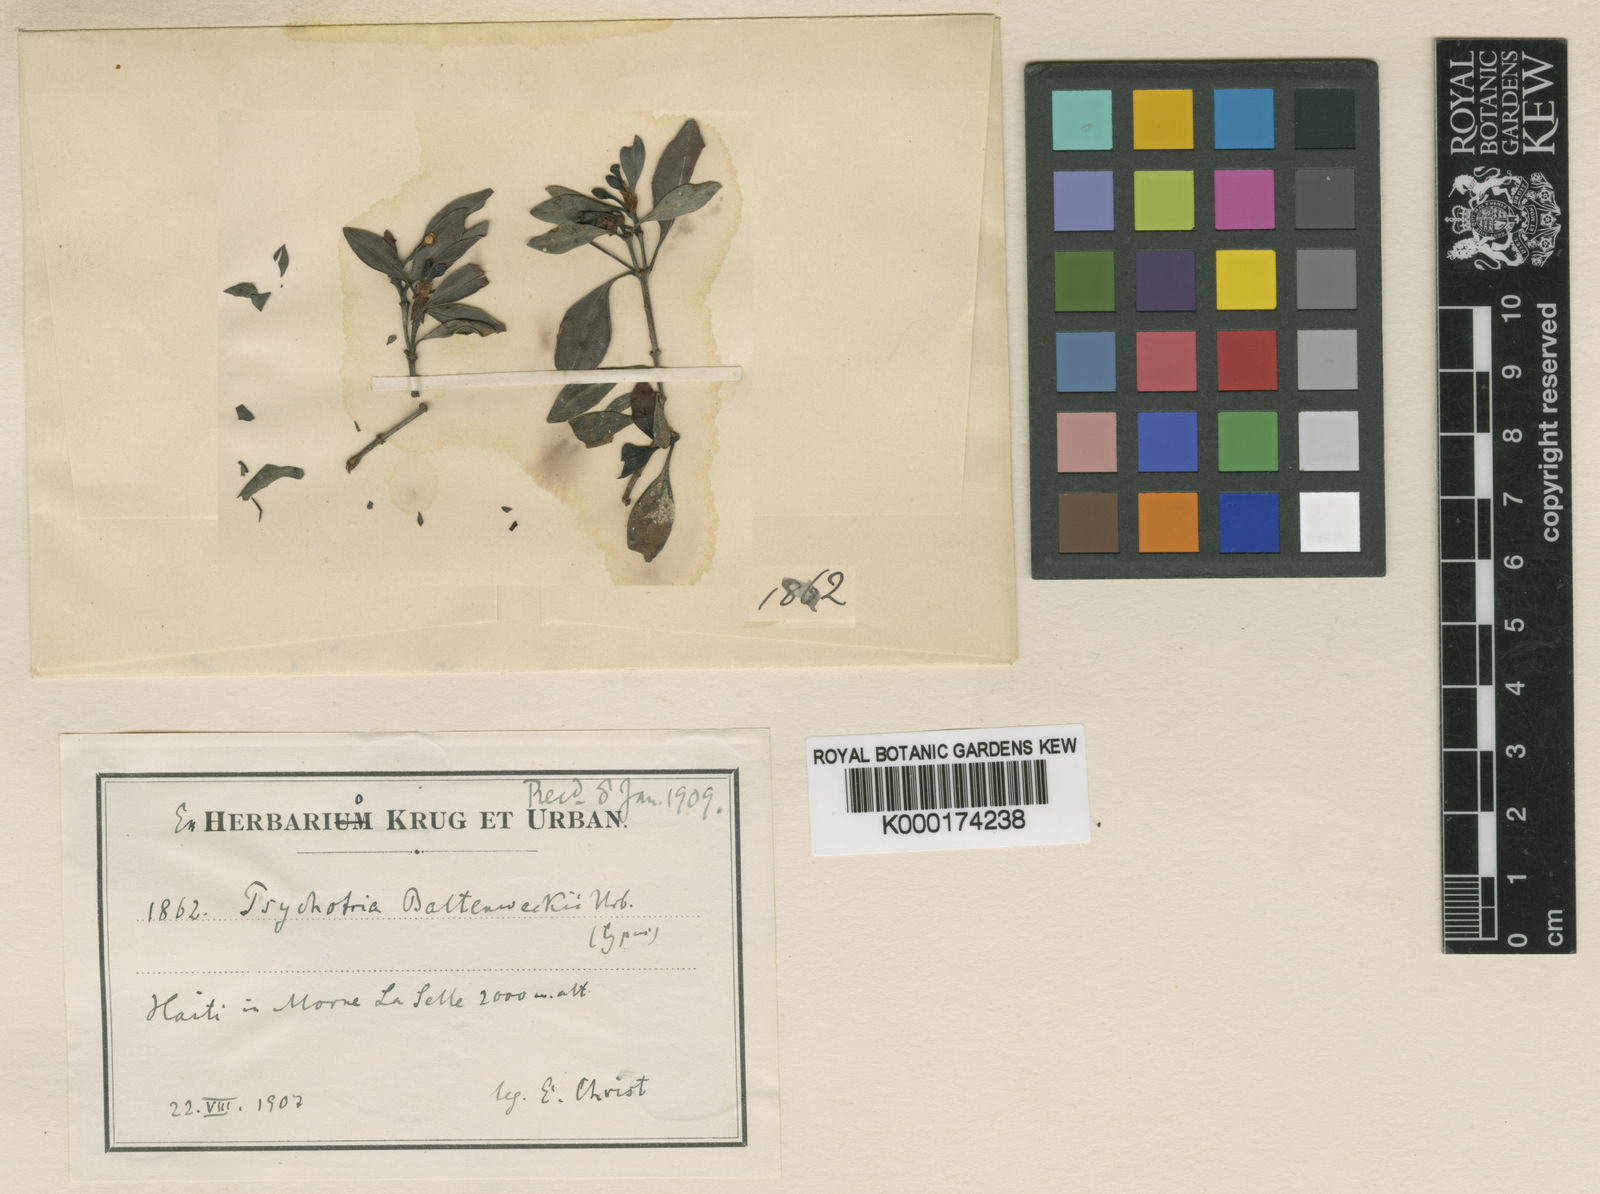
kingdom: Plantae
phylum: Tracheophyta
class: Magnoliopsida
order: Gentianales
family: Rubiaceae
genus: Psychotria
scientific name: Psychotria baltenweckii
